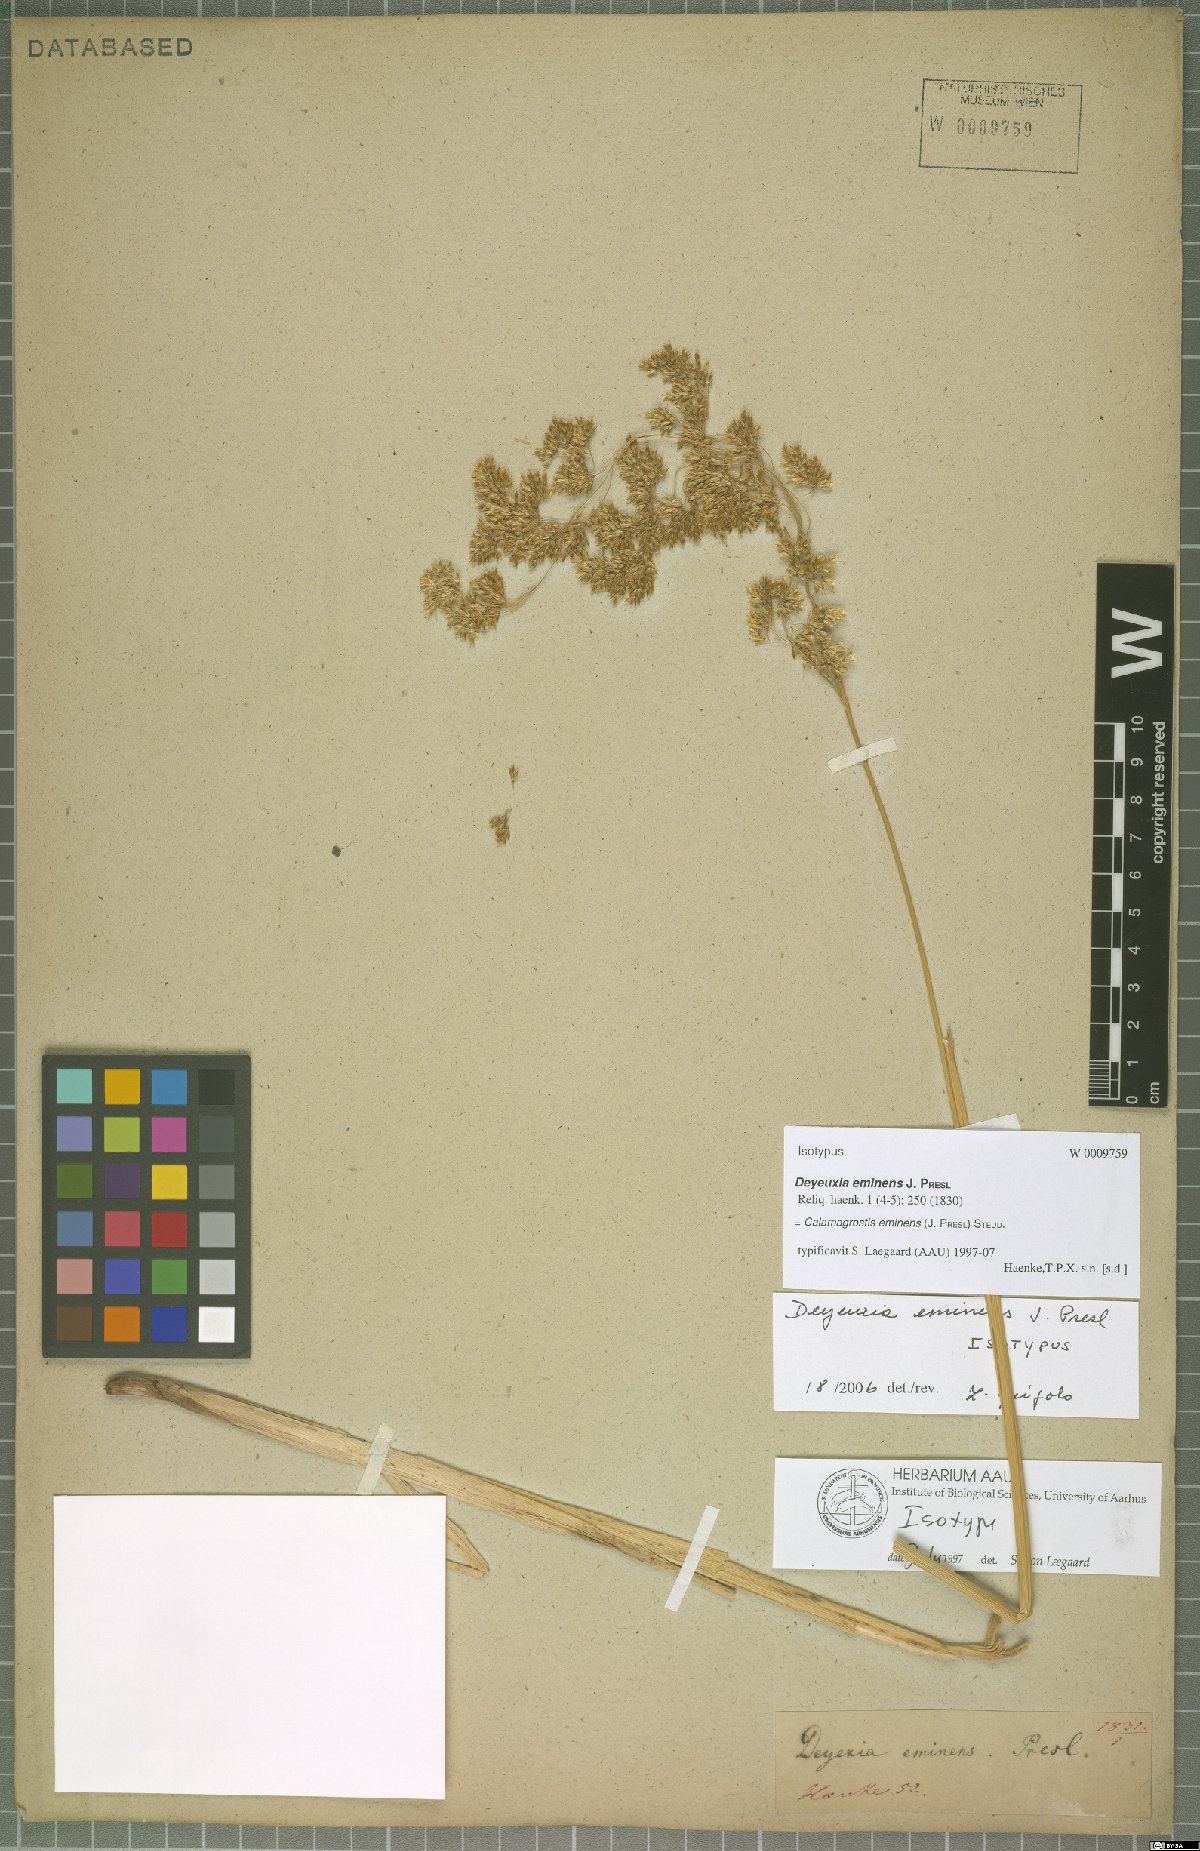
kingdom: Plantae
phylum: Tracheophyta
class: Liliopsida
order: Poales
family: Poaceae
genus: Deschampsia
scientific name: Deschampsia eminens
